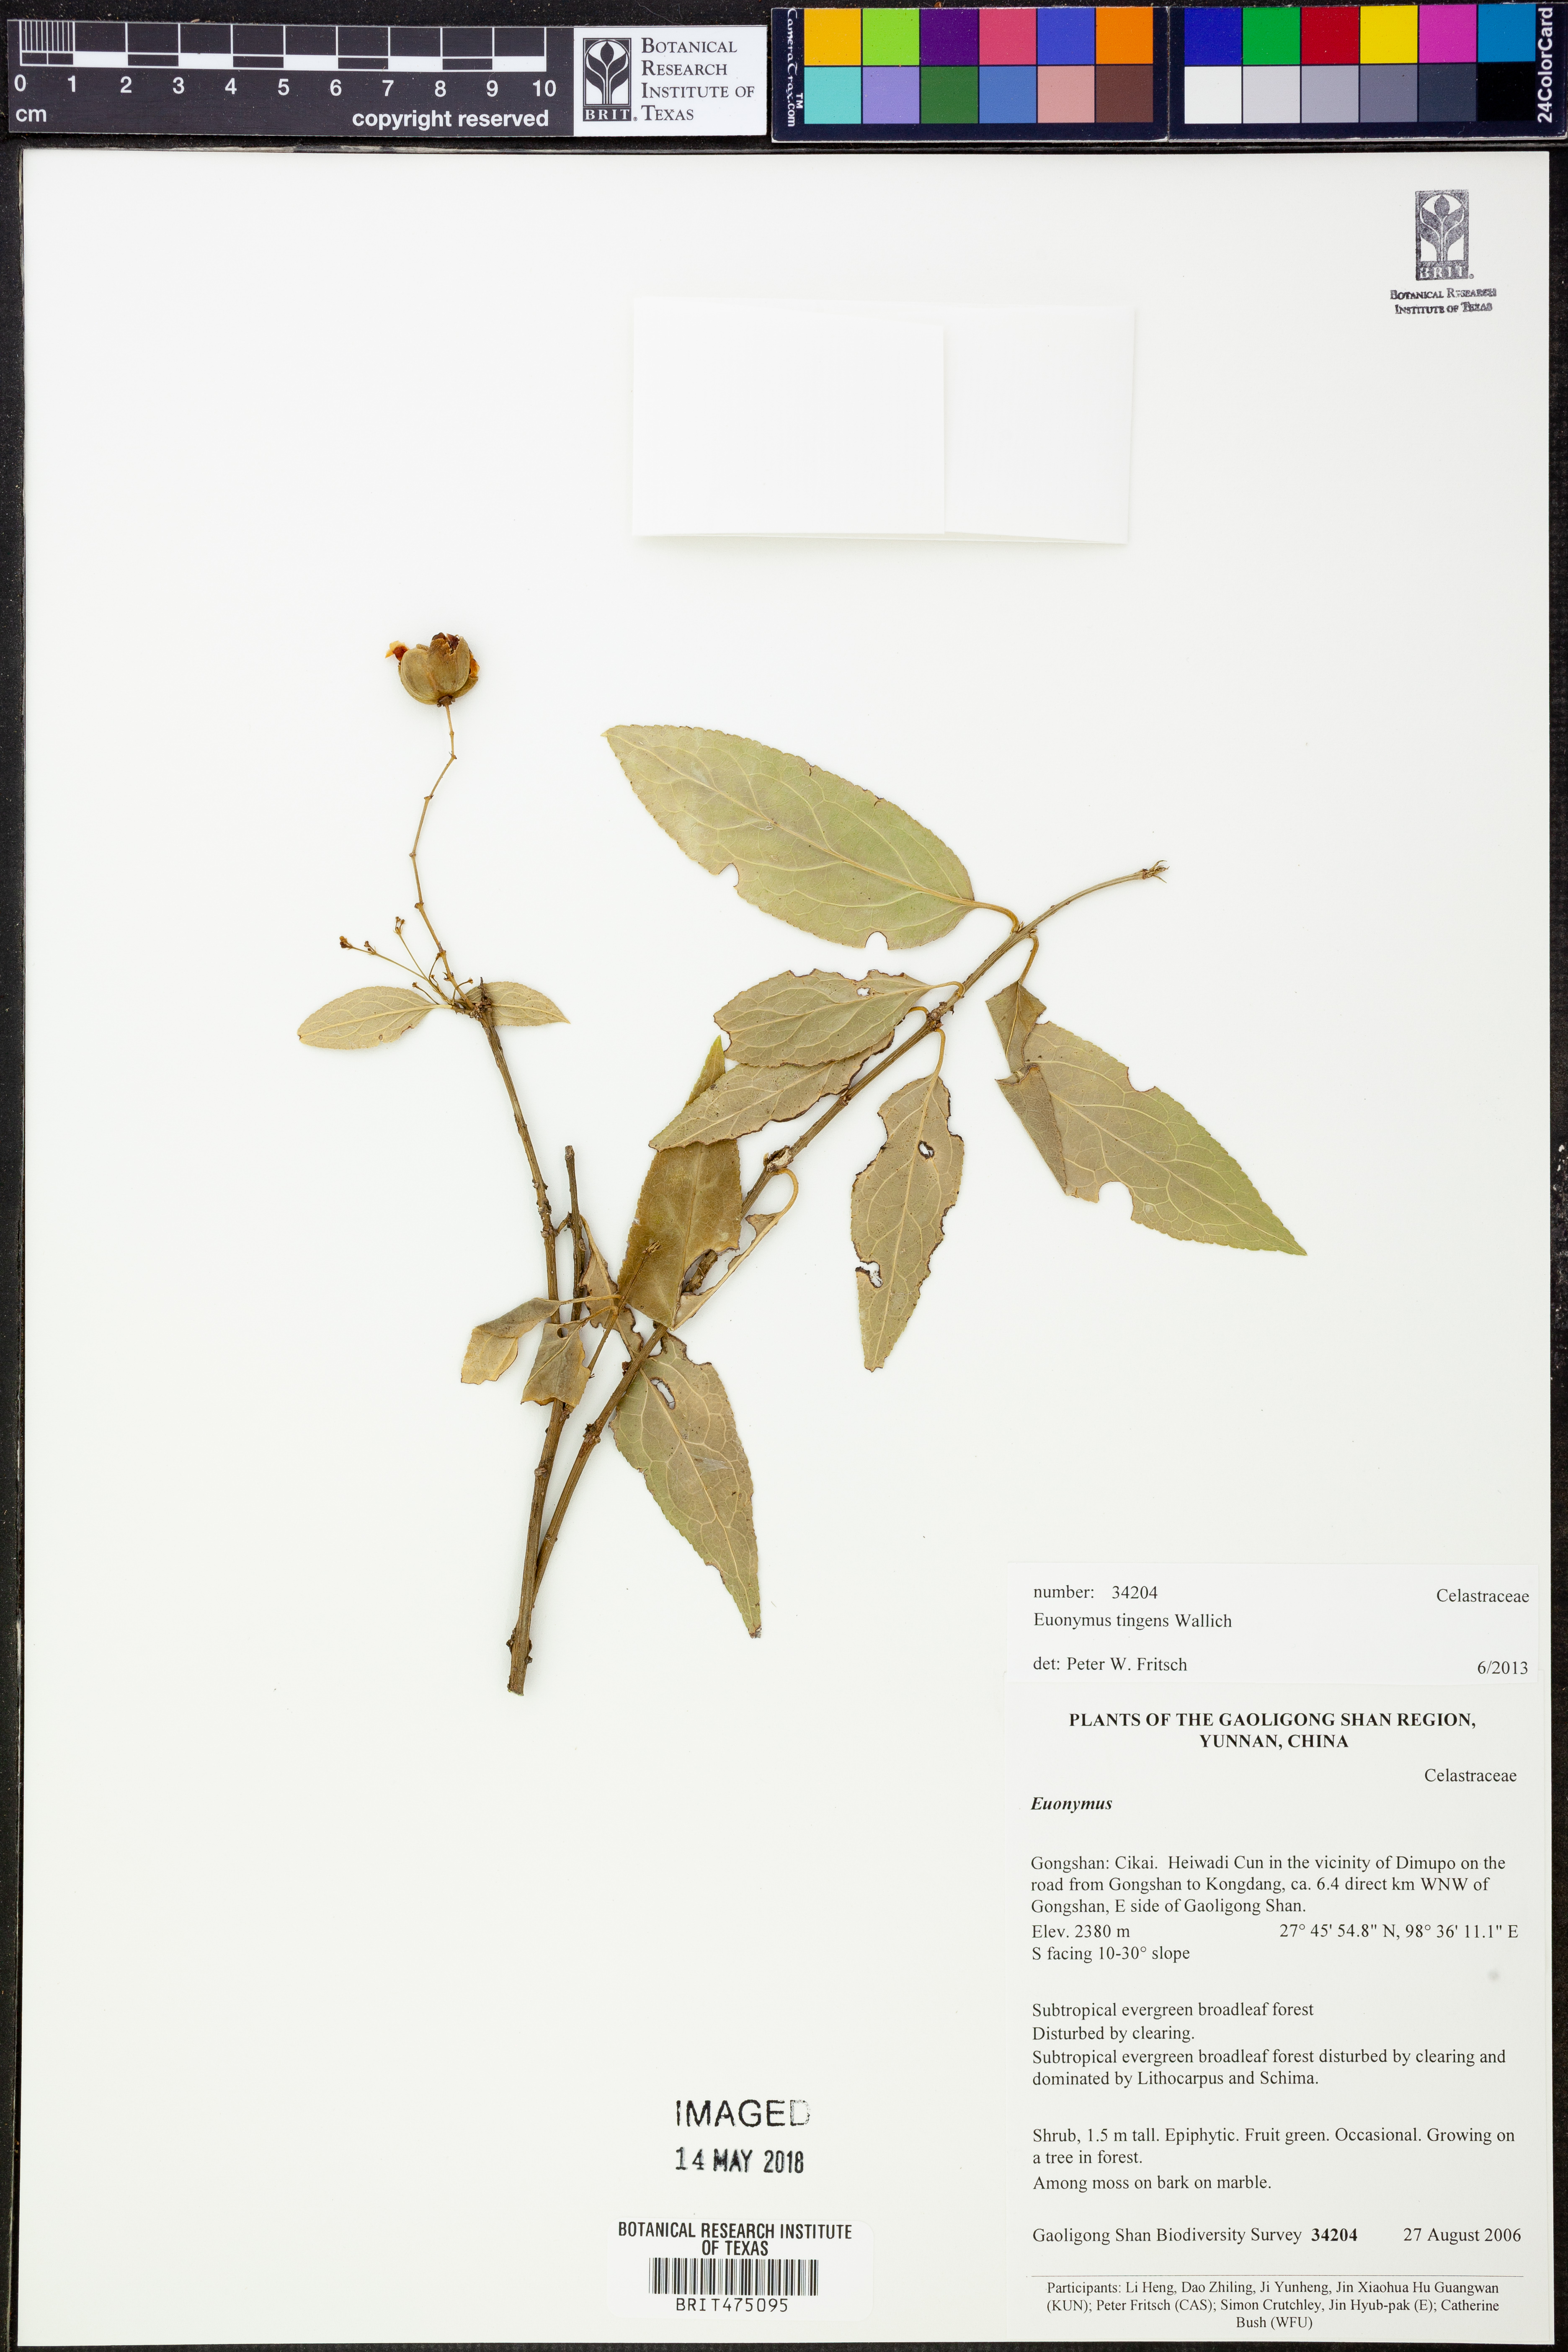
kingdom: Plantae
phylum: Tracheophyta
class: Magnoliopsida
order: Celastrales
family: Celastraceae
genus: Euonymus
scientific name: Euonymus tingens
